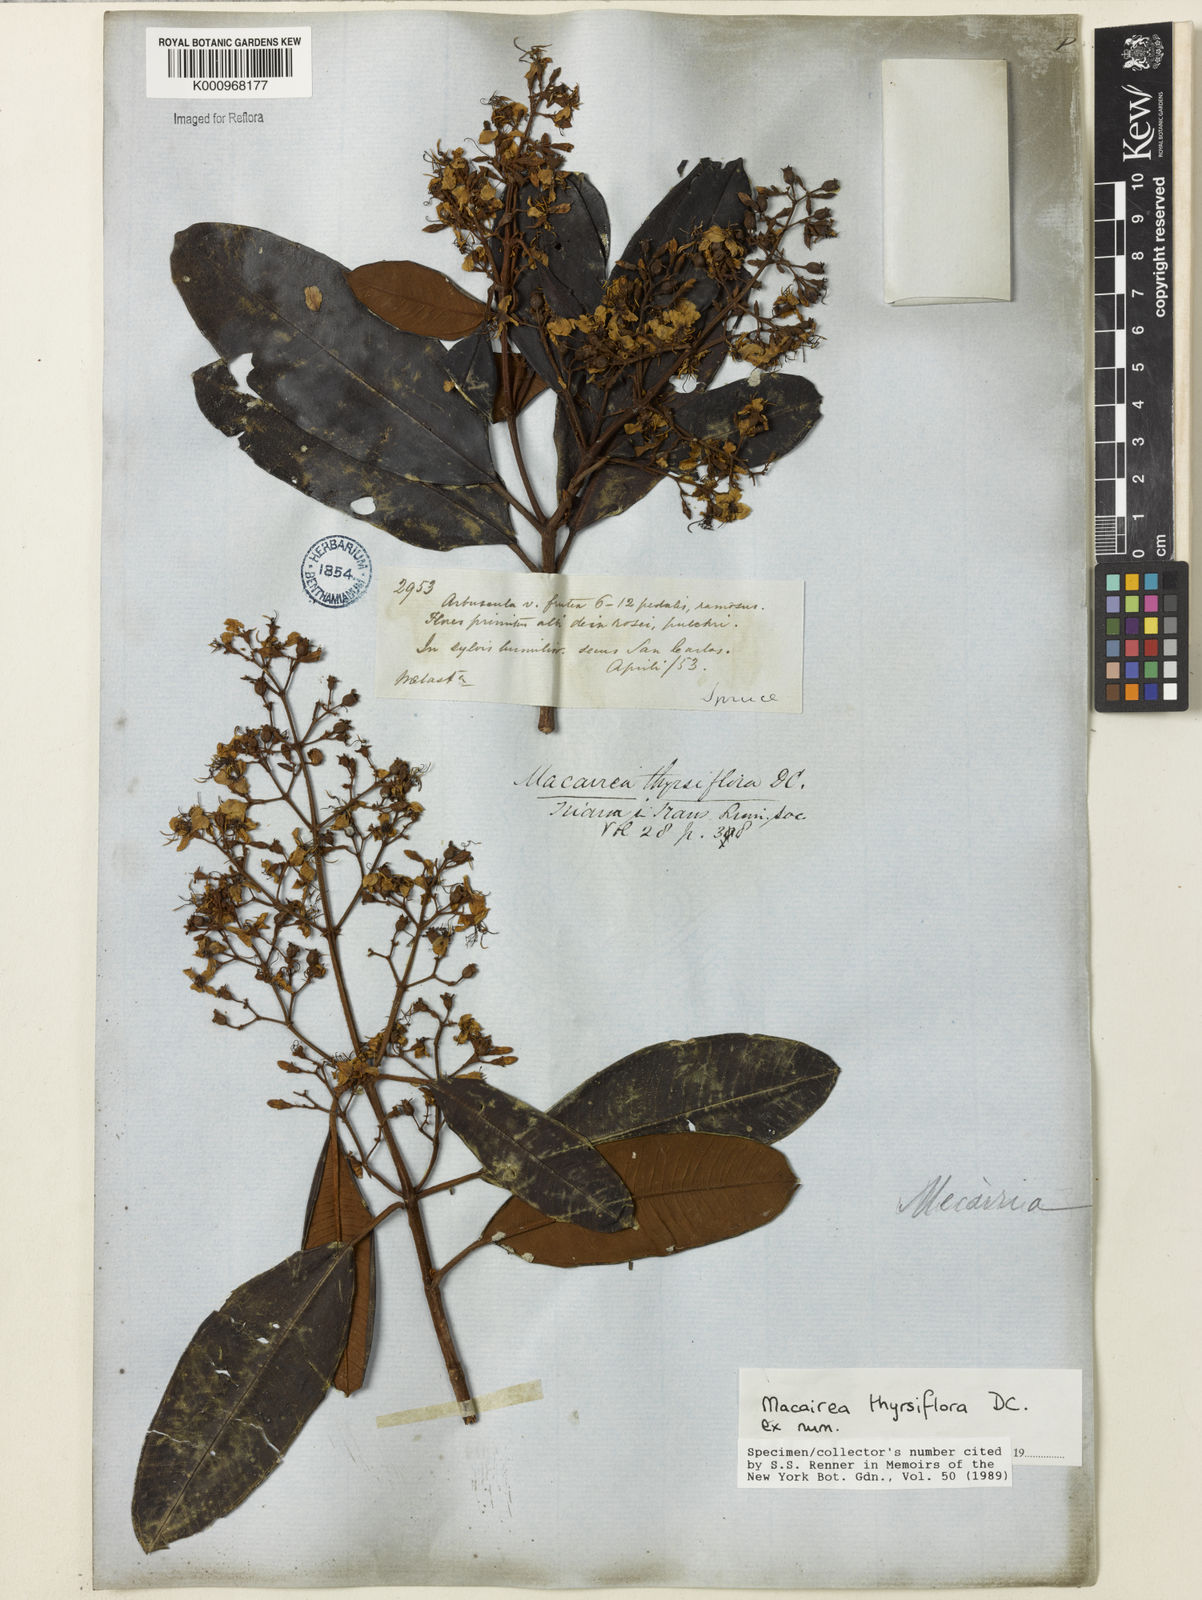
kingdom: Plantae
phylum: Tracheophyta
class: Magnoliopsida
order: Myrtales
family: Melastomataceae
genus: Macairea
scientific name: Macairea thyrsiflora
